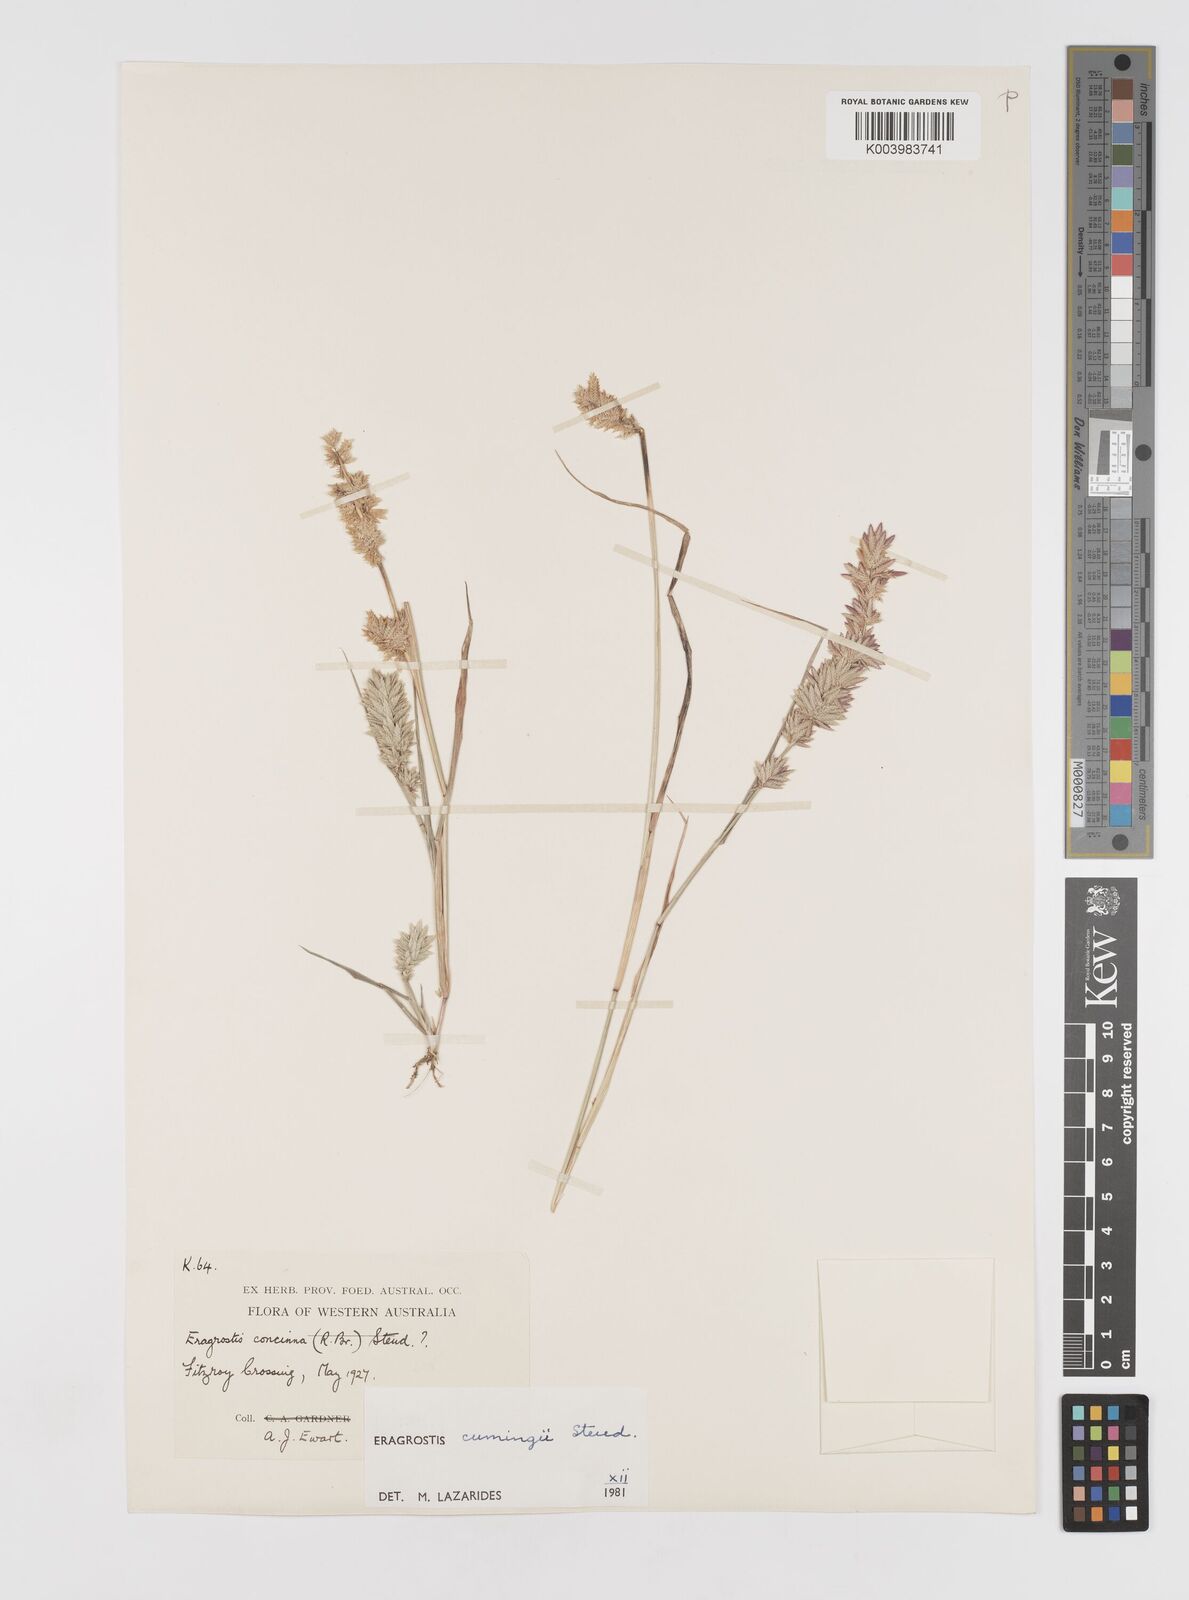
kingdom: Plantae
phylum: Tracheophyta
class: Liliopsida
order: Poales
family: Poaceae
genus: Eragrostis
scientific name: Eragrostis cumingii
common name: Cuming's lovegrass
